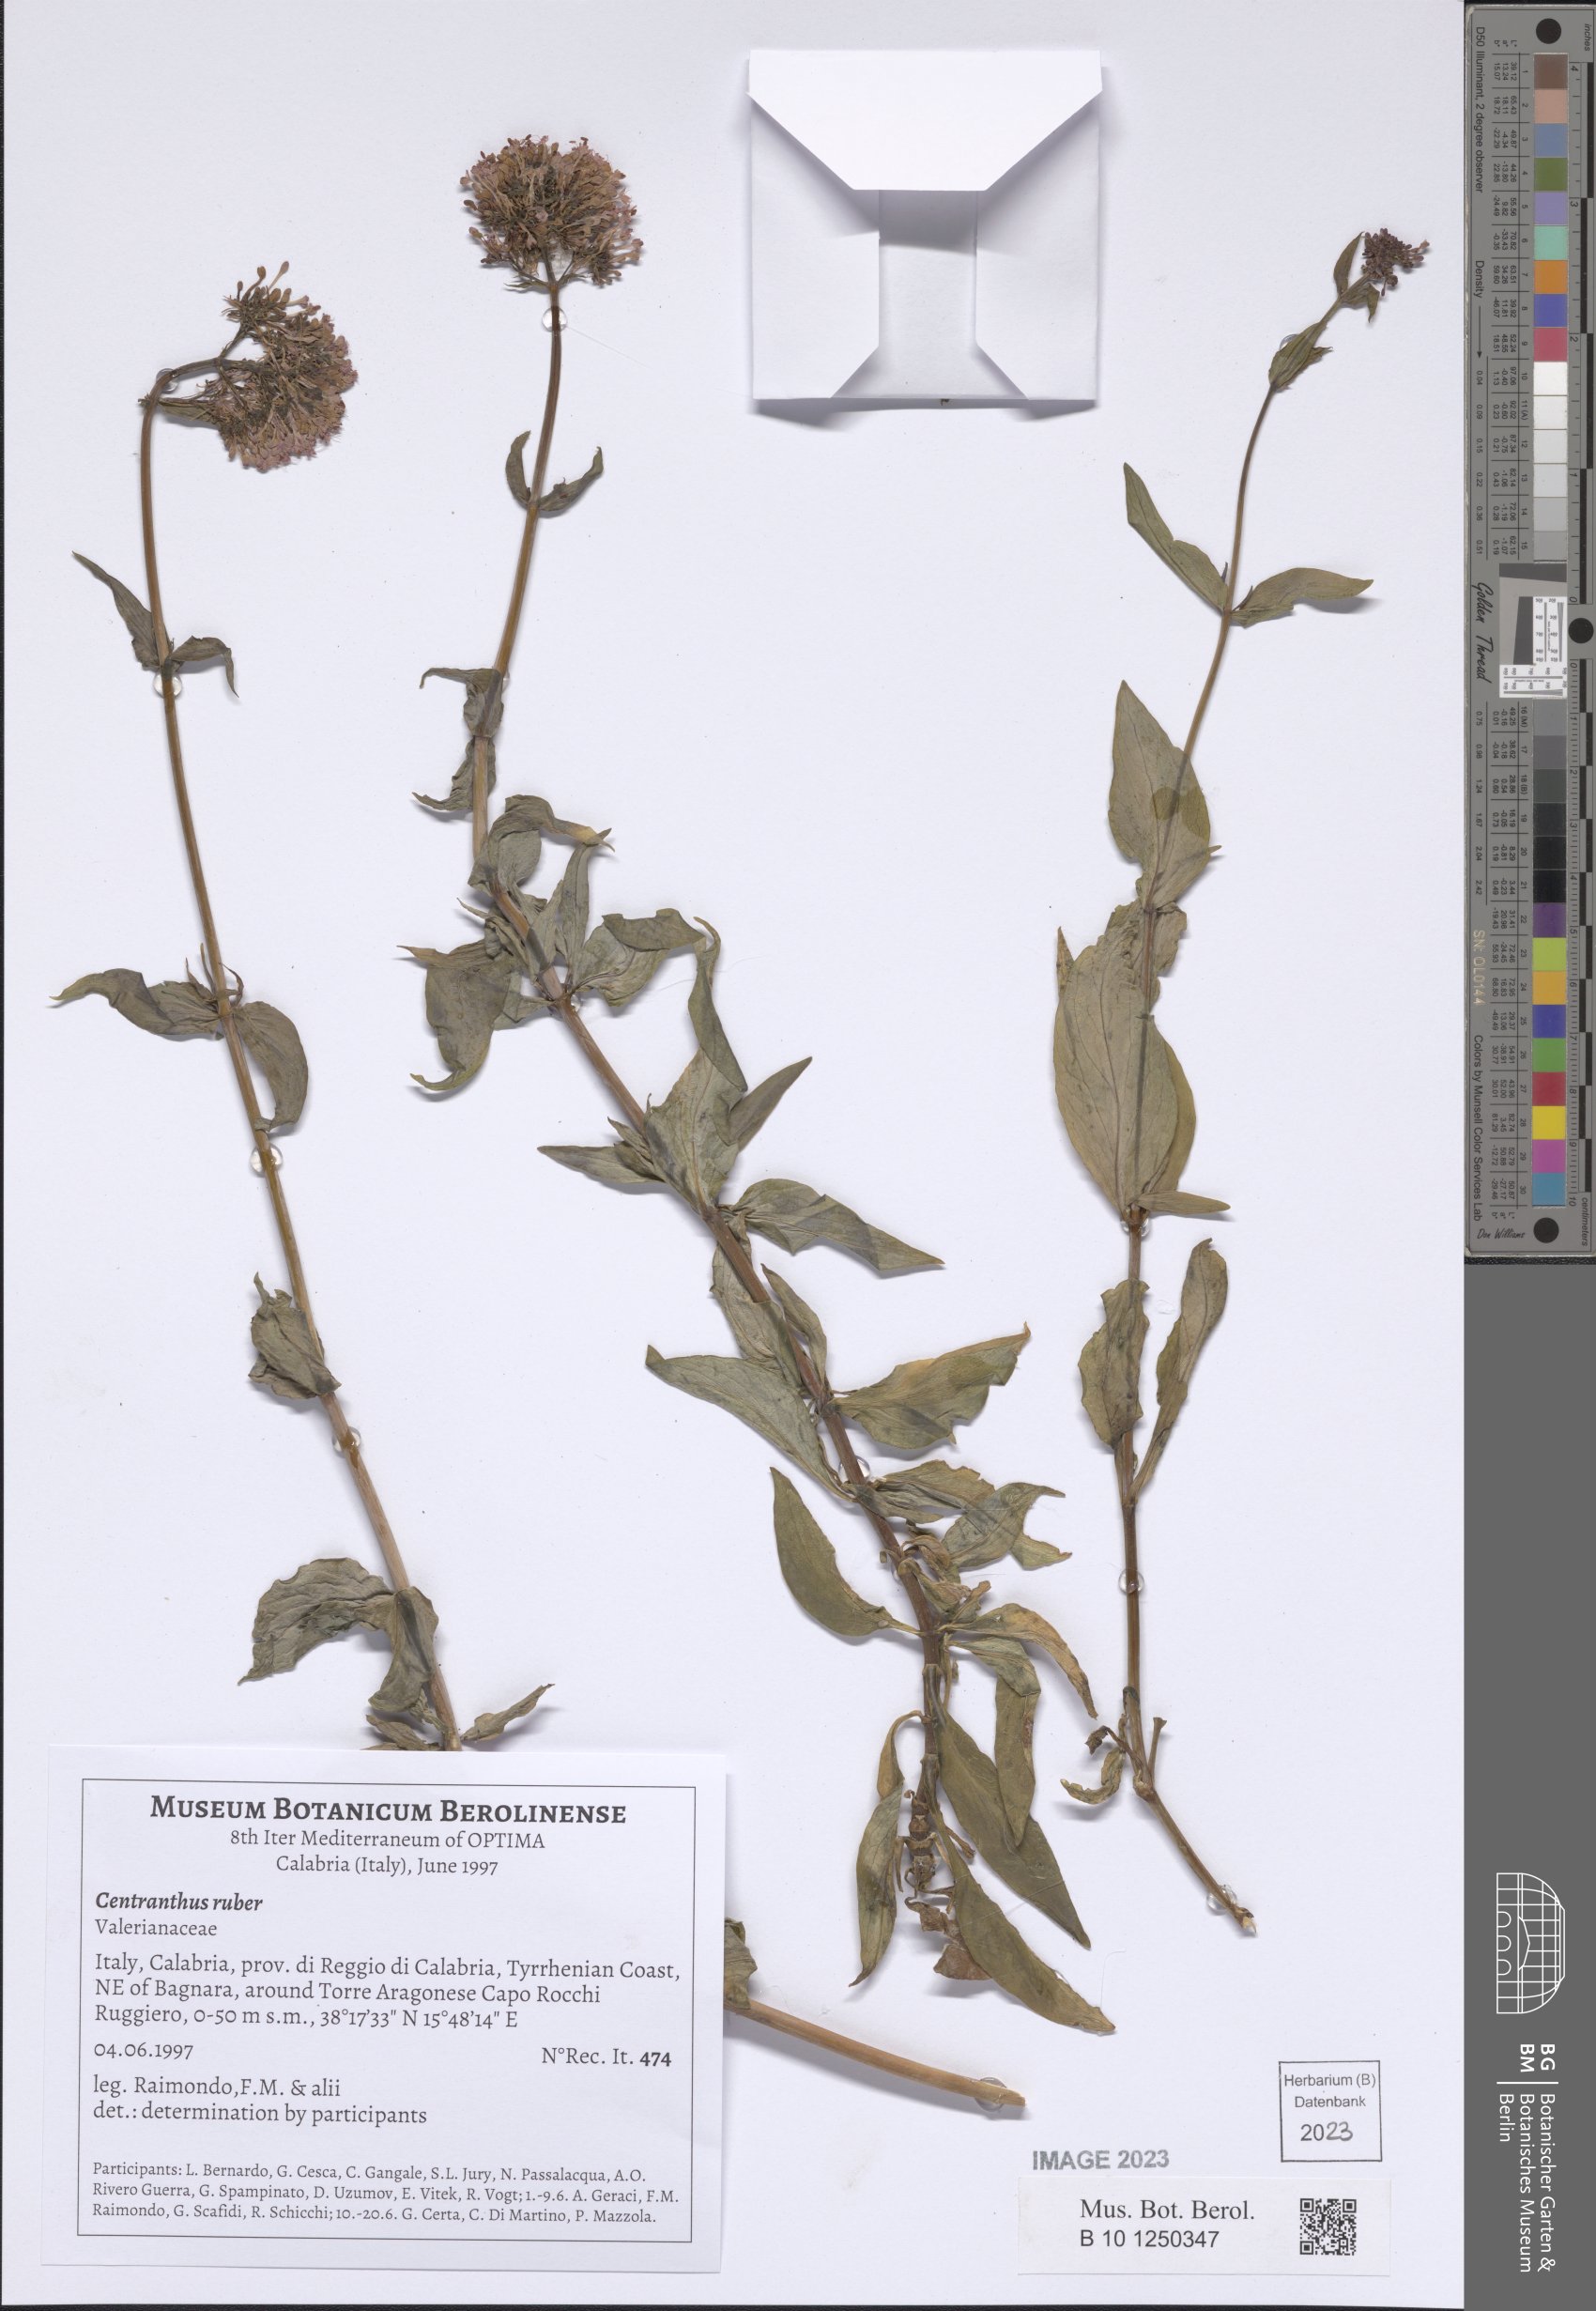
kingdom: Plantae
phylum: Tracheophyta
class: Magnoliopsida
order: Dipsacales
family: Caprifoliaceae
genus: Centranthus
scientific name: Centranthus ruber
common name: Red valerian
